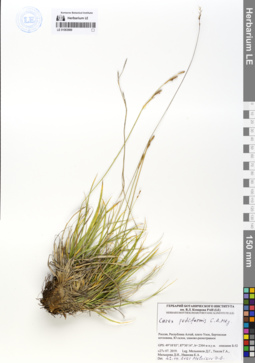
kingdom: Plantae
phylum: Tracheophyta
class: Liliopsida
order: Poales
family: Cyperaceae
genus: Carex
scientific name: Carex pediformis
